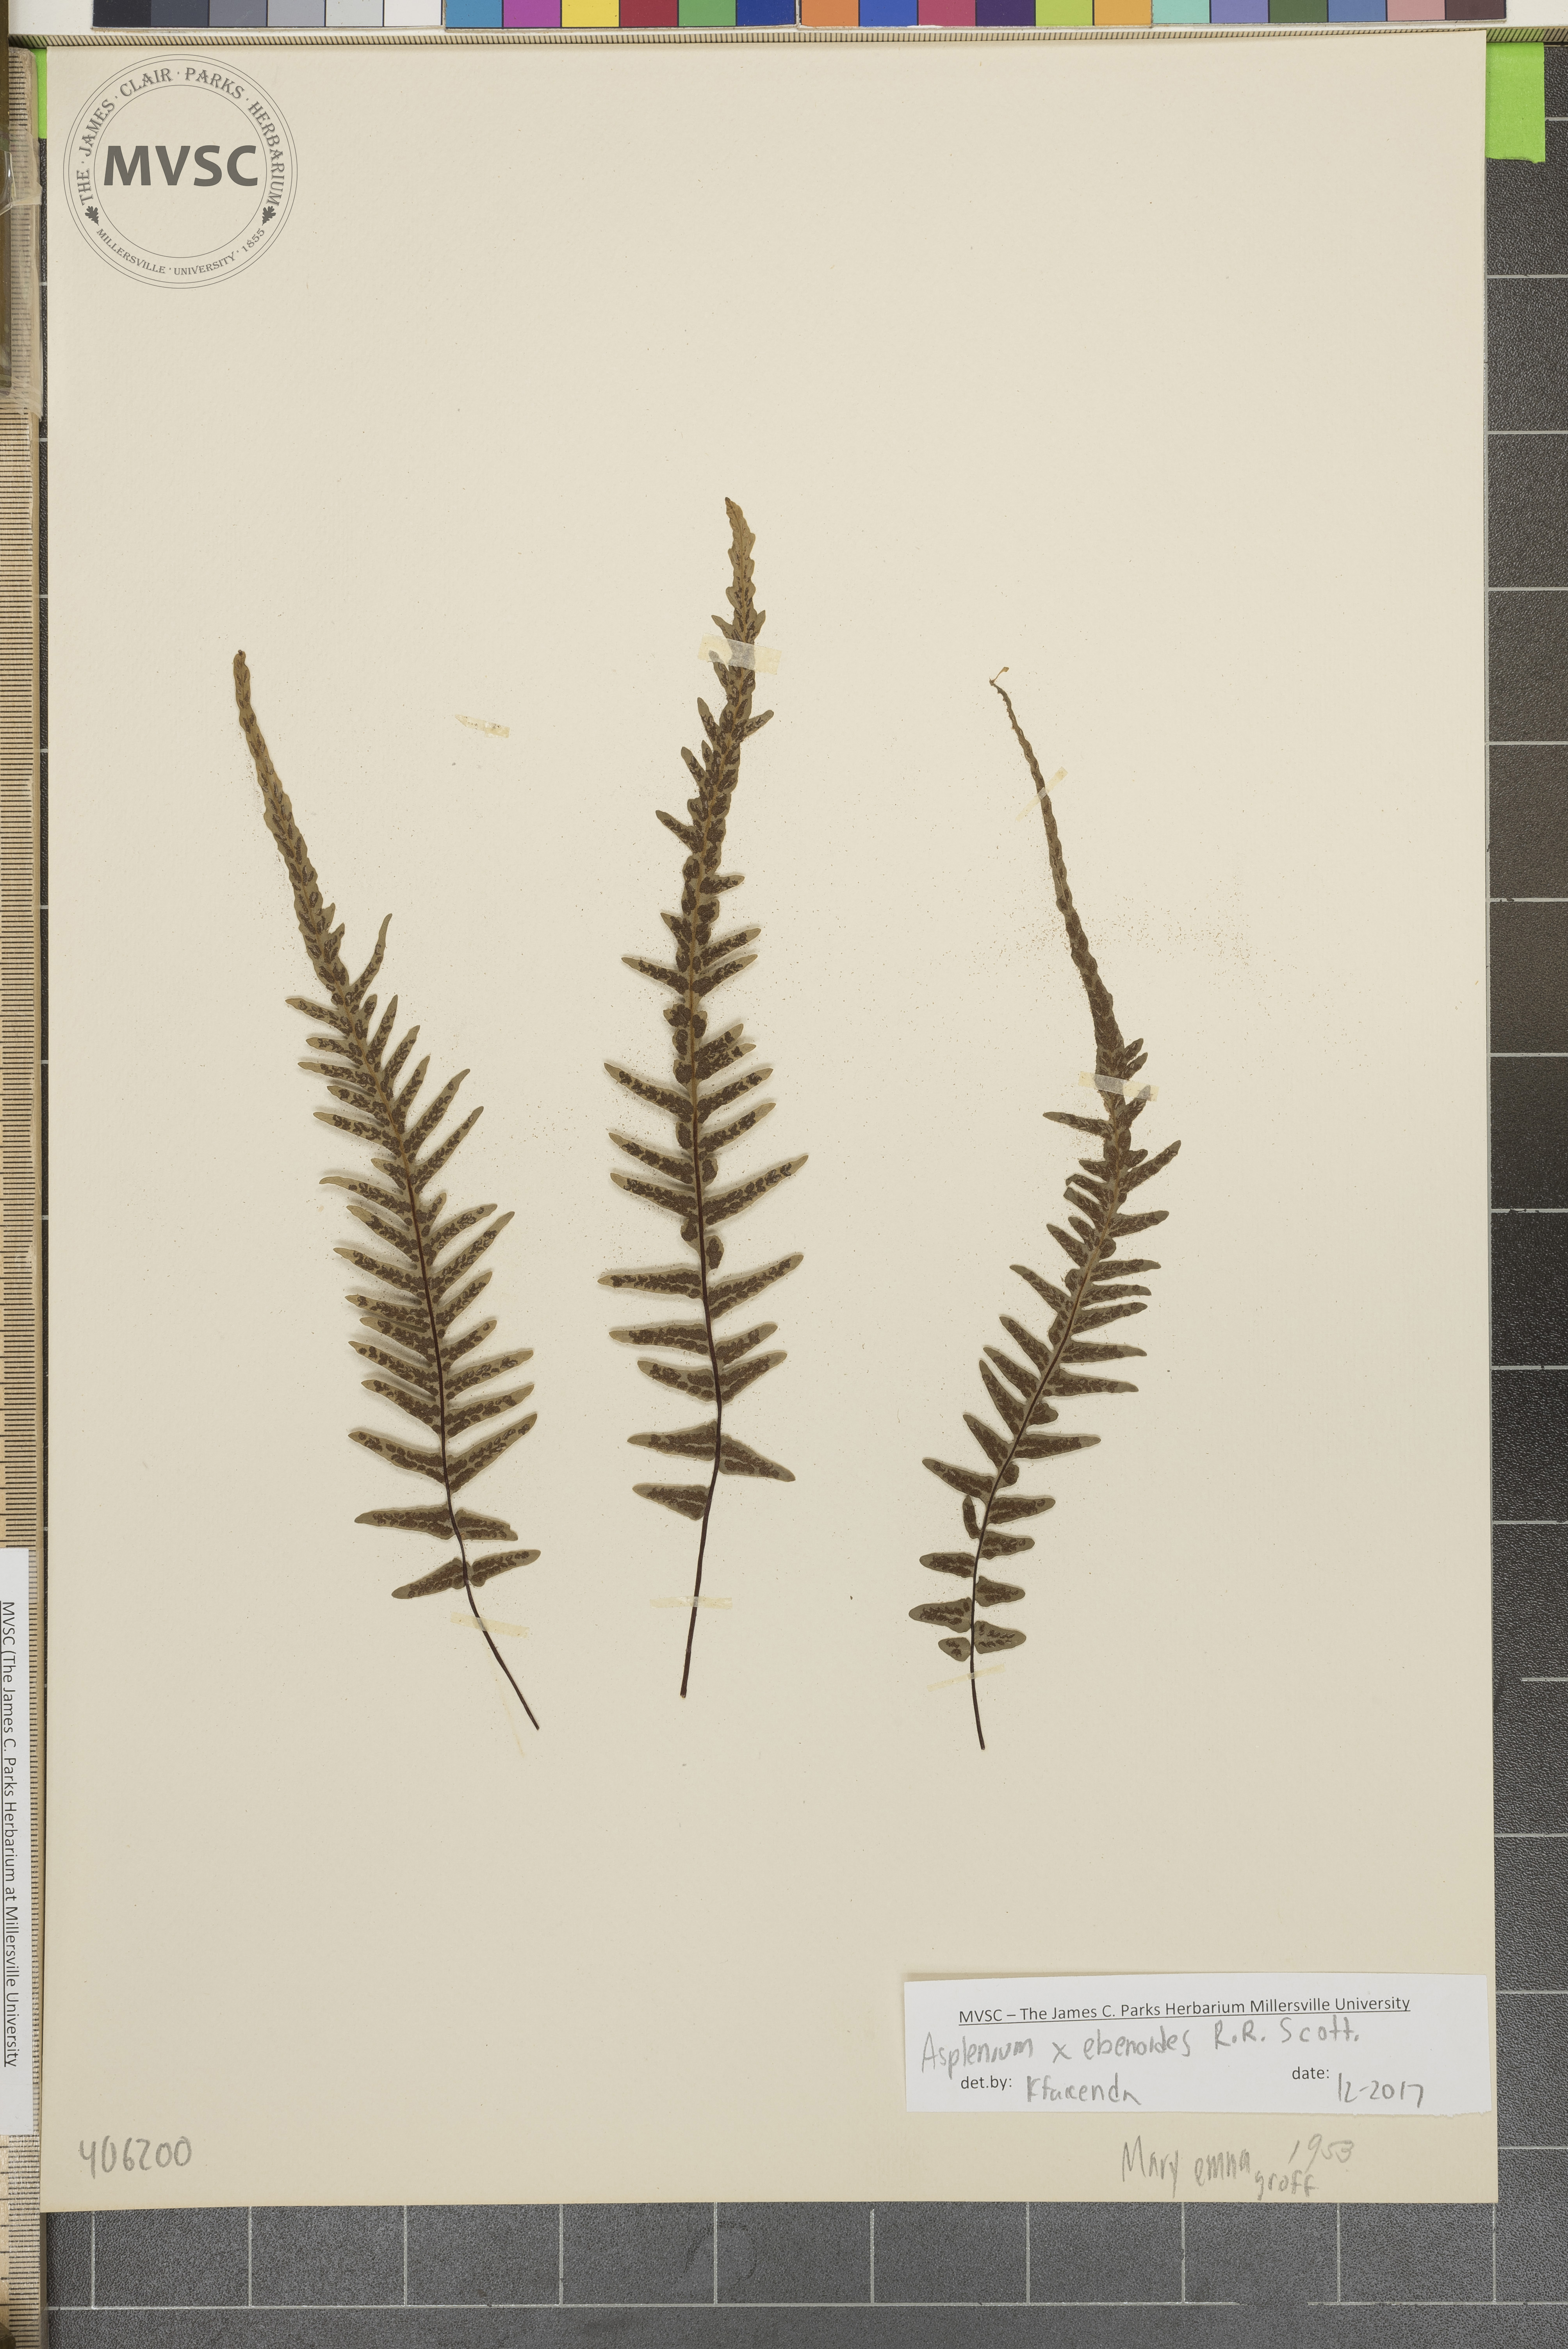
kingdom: Plantae
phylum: Tracheophyta
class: Polypodiopsida
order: Polypodiales
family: Aspleniaceae
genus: Asplenium
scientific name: Asplenium ebenoides
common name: Dragon-tail fern
